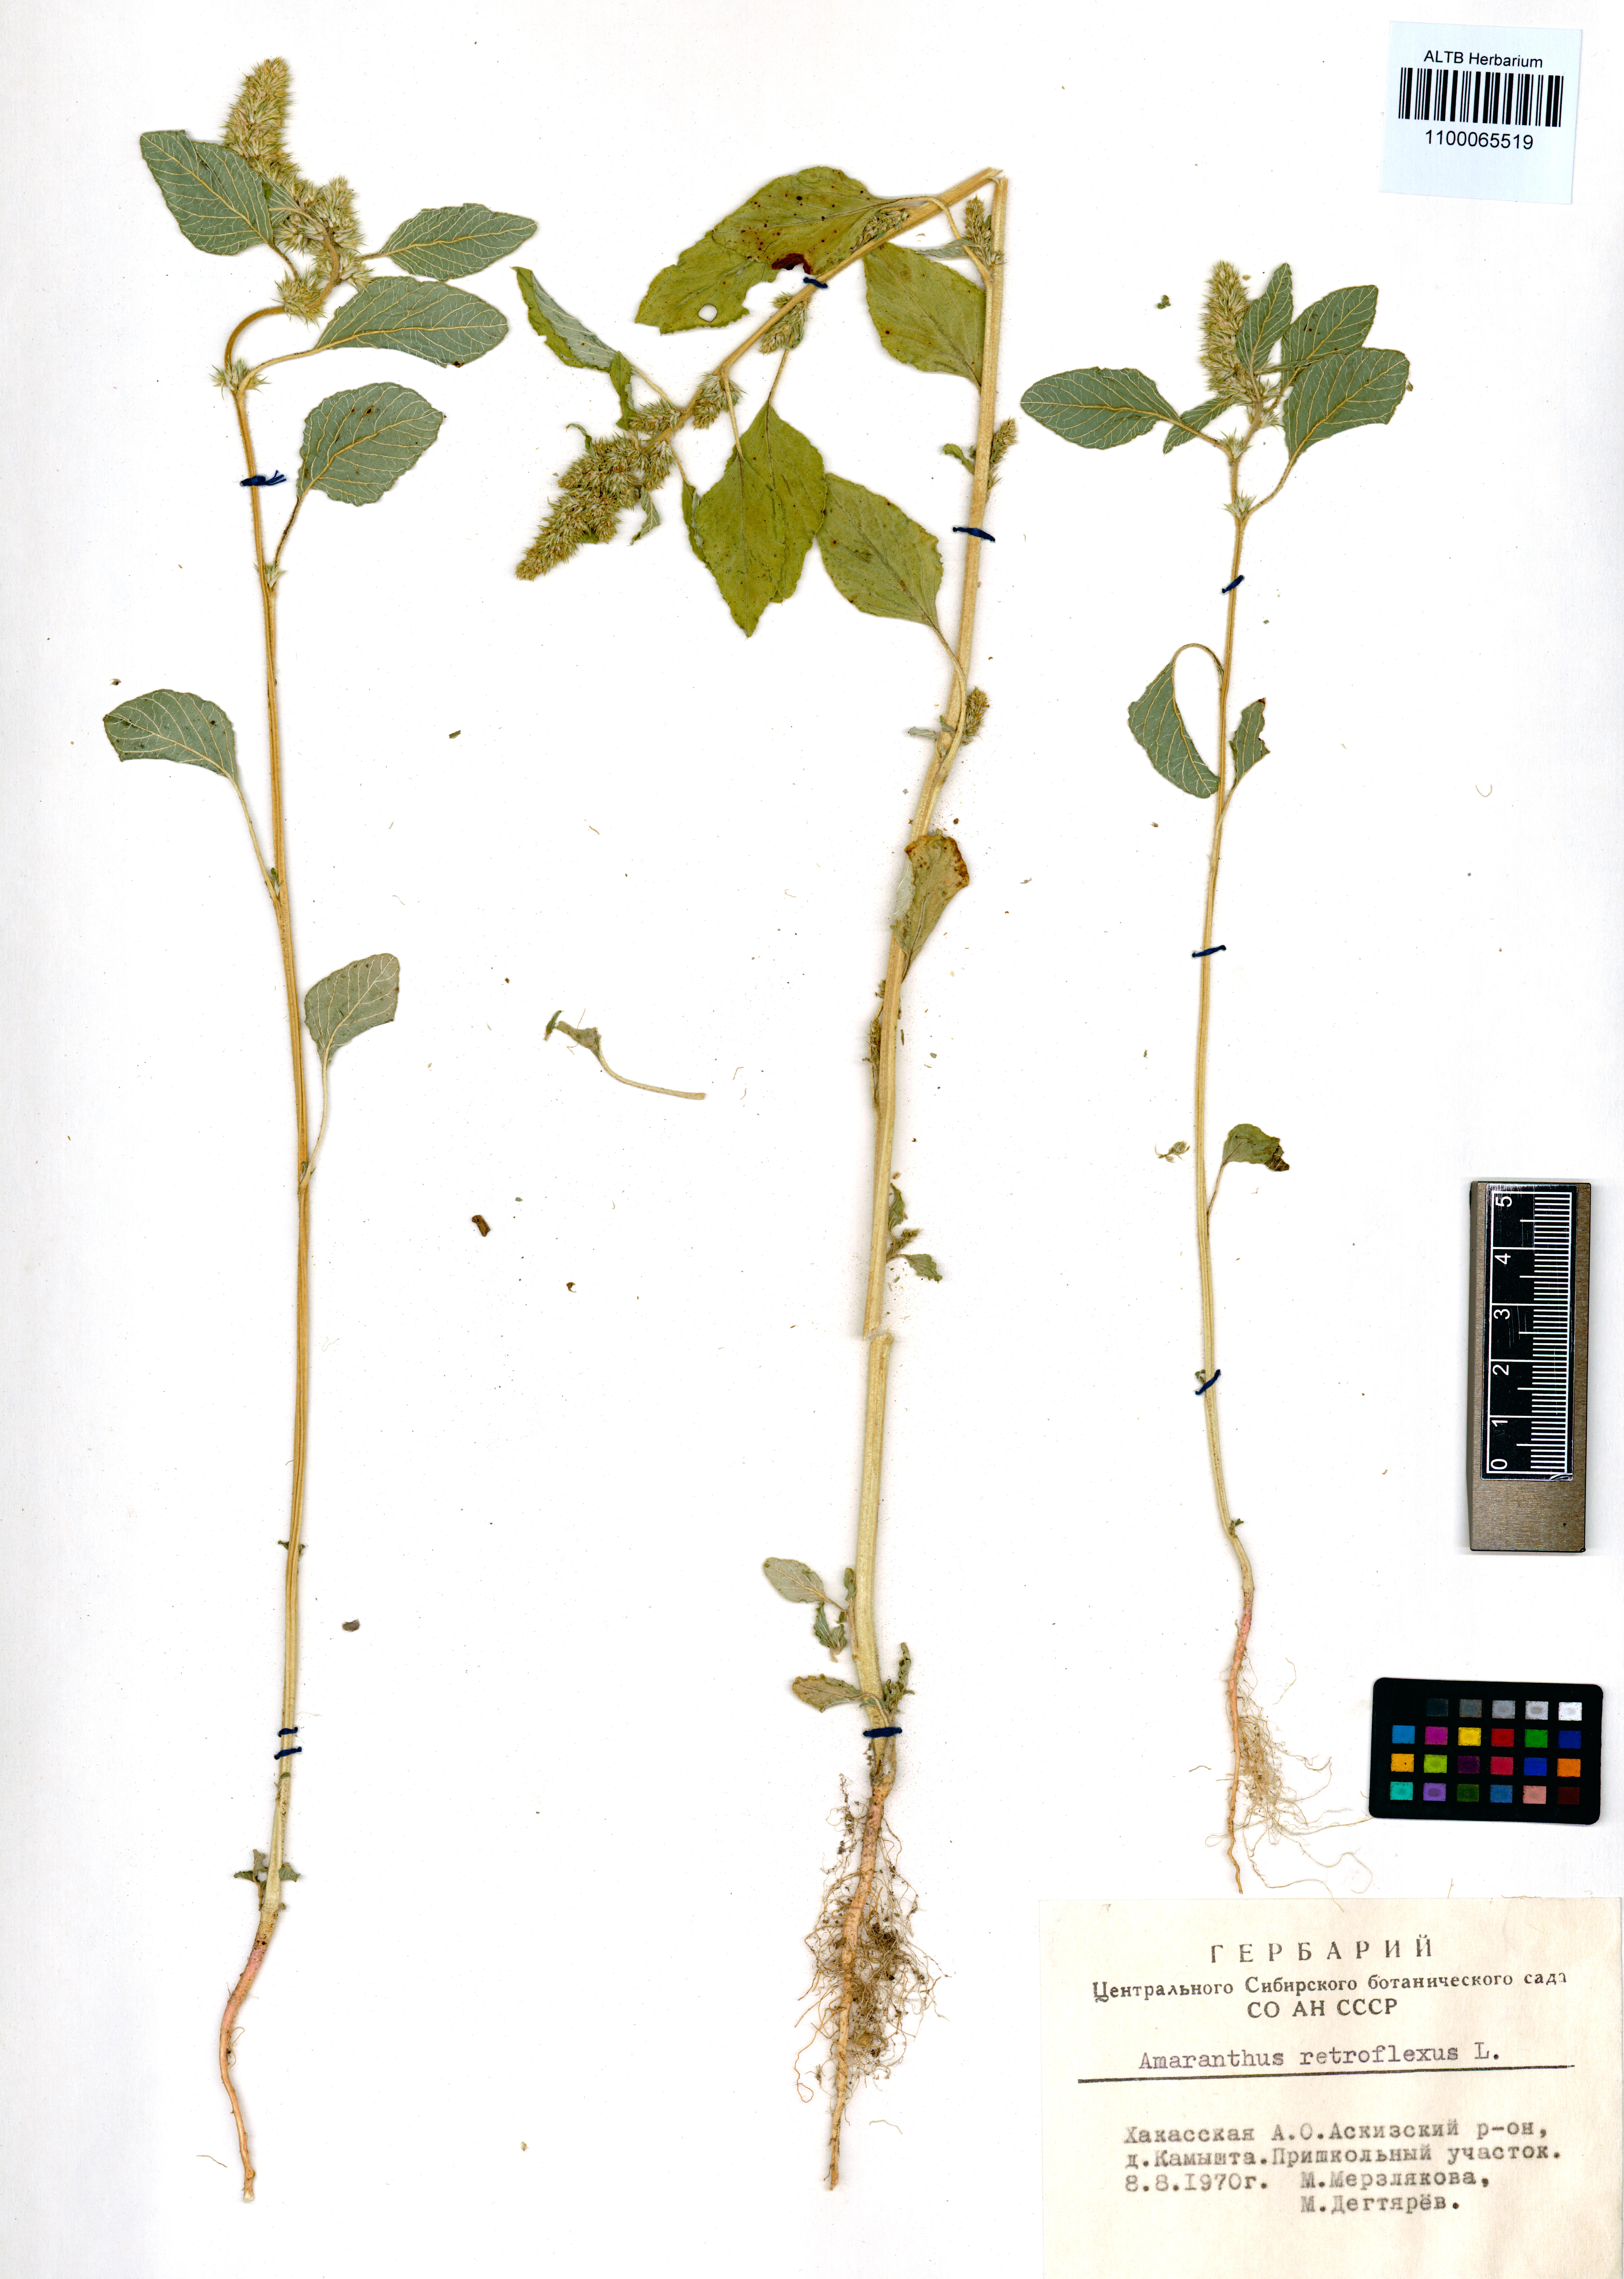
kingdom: Plantae
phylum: Tracheophyta
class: Magnoliopsida
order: Caryophyllales
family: Amaranthaceae
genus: Amaranthus
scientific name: Amaranthus retroflexus
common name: Redroot amaranth
